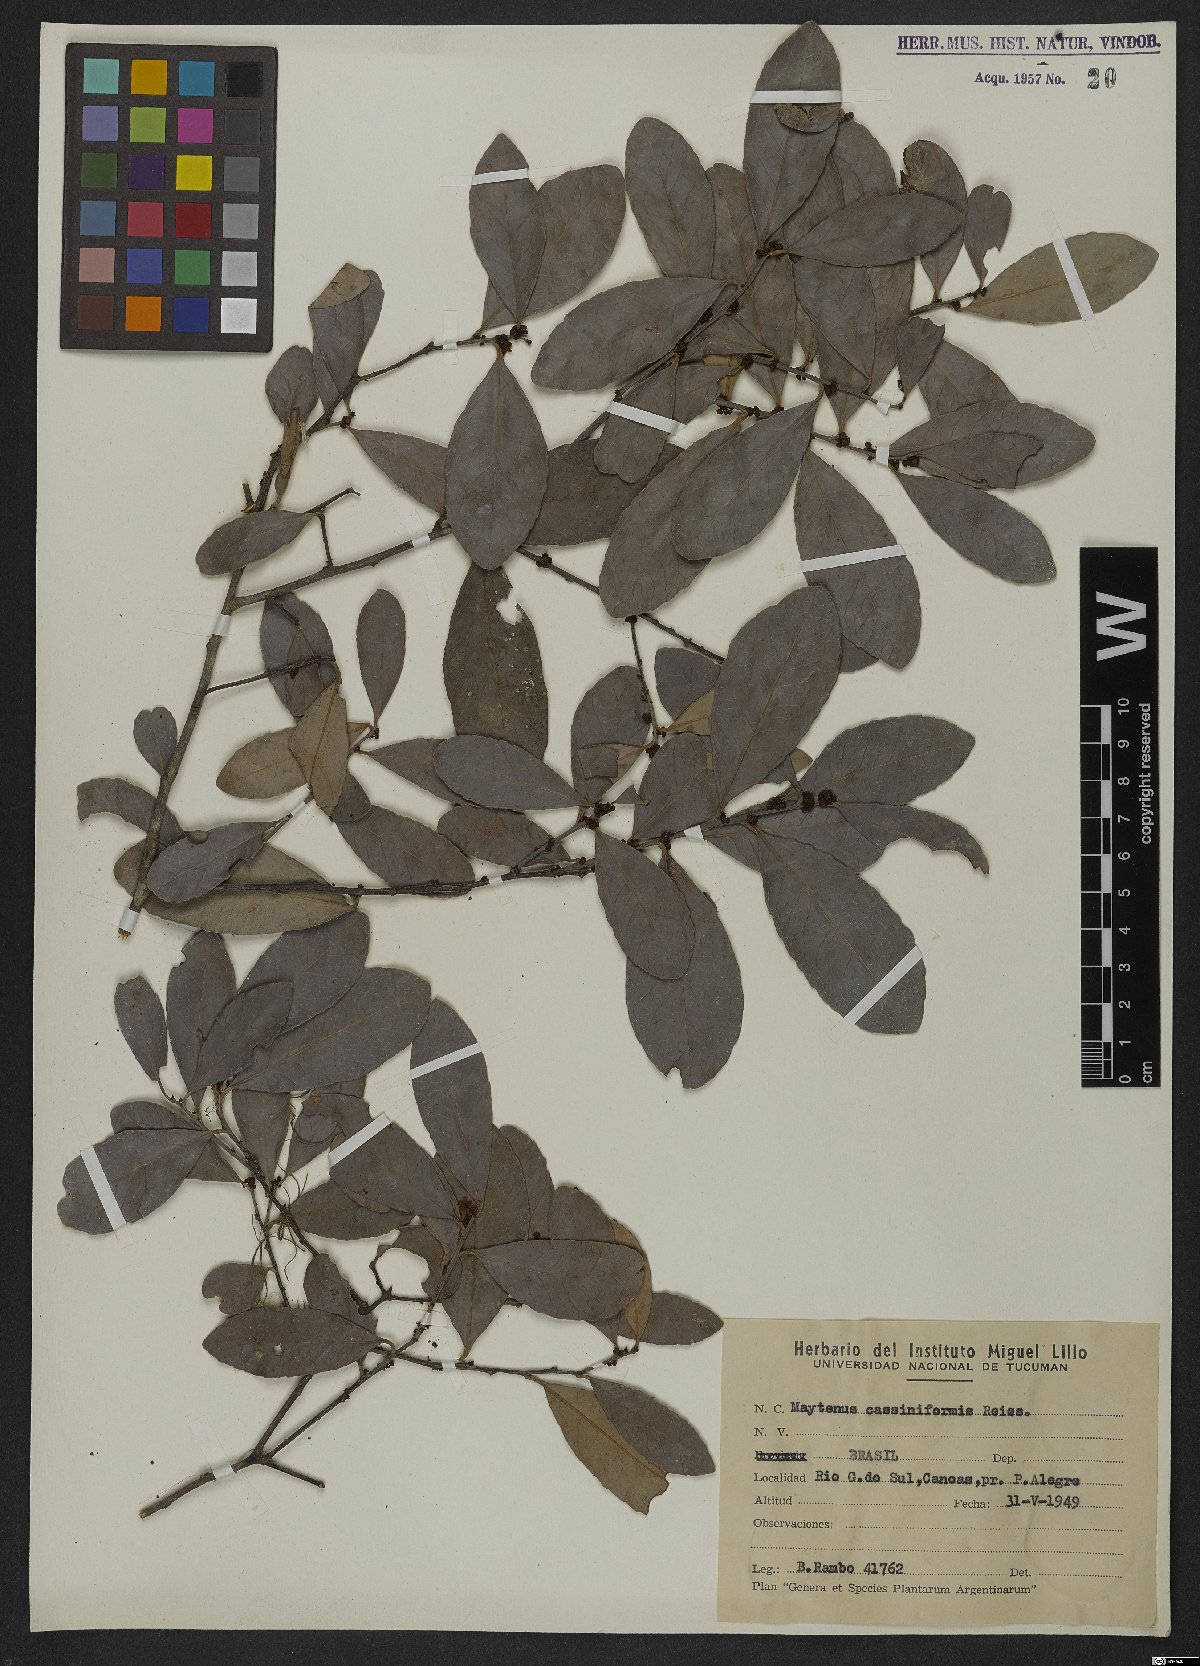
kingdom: Plantae
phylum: Tracheophyta
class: Magnoliopsida
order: Celastrales
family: Celastraceae
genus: Monteverdia
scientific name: Monteverdia cassineformis
